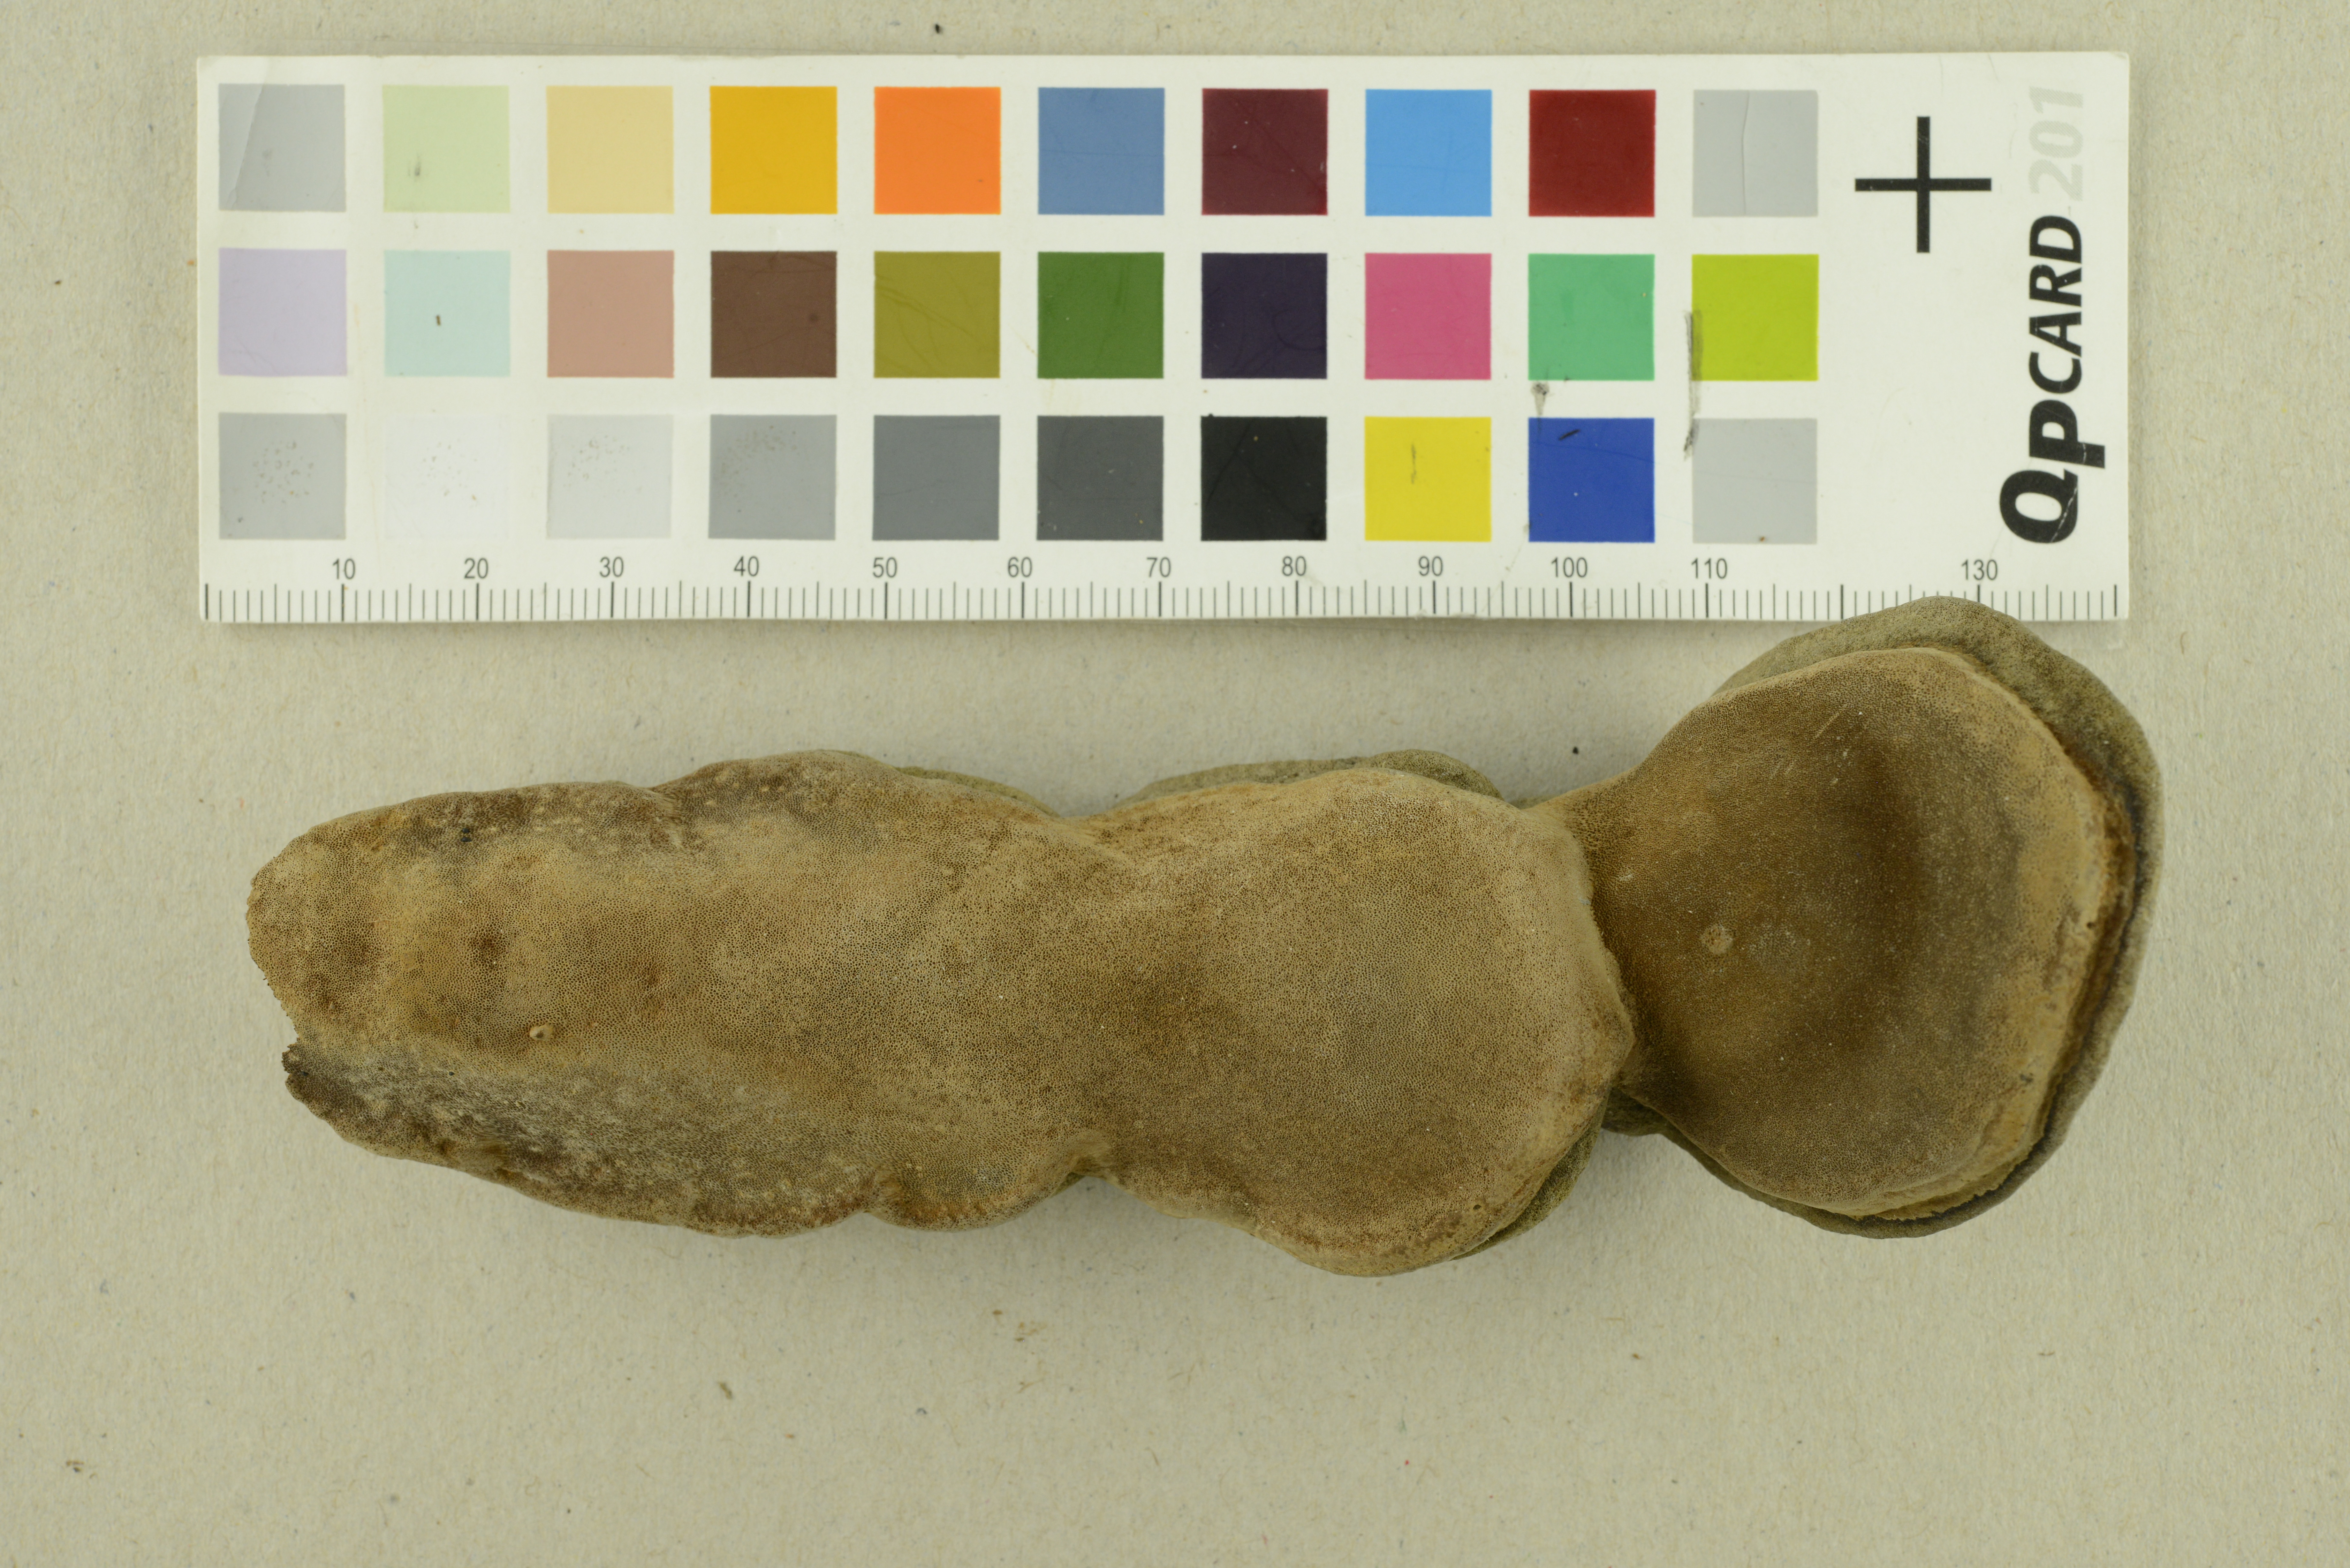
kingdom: Fungi
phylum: Basidiomycota
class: Agaricomycetes
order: Hymenochaetales
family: Hymenochaetaceae
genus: Phellinus
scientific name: Phellinus pomaceus
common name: Cushion bracket
